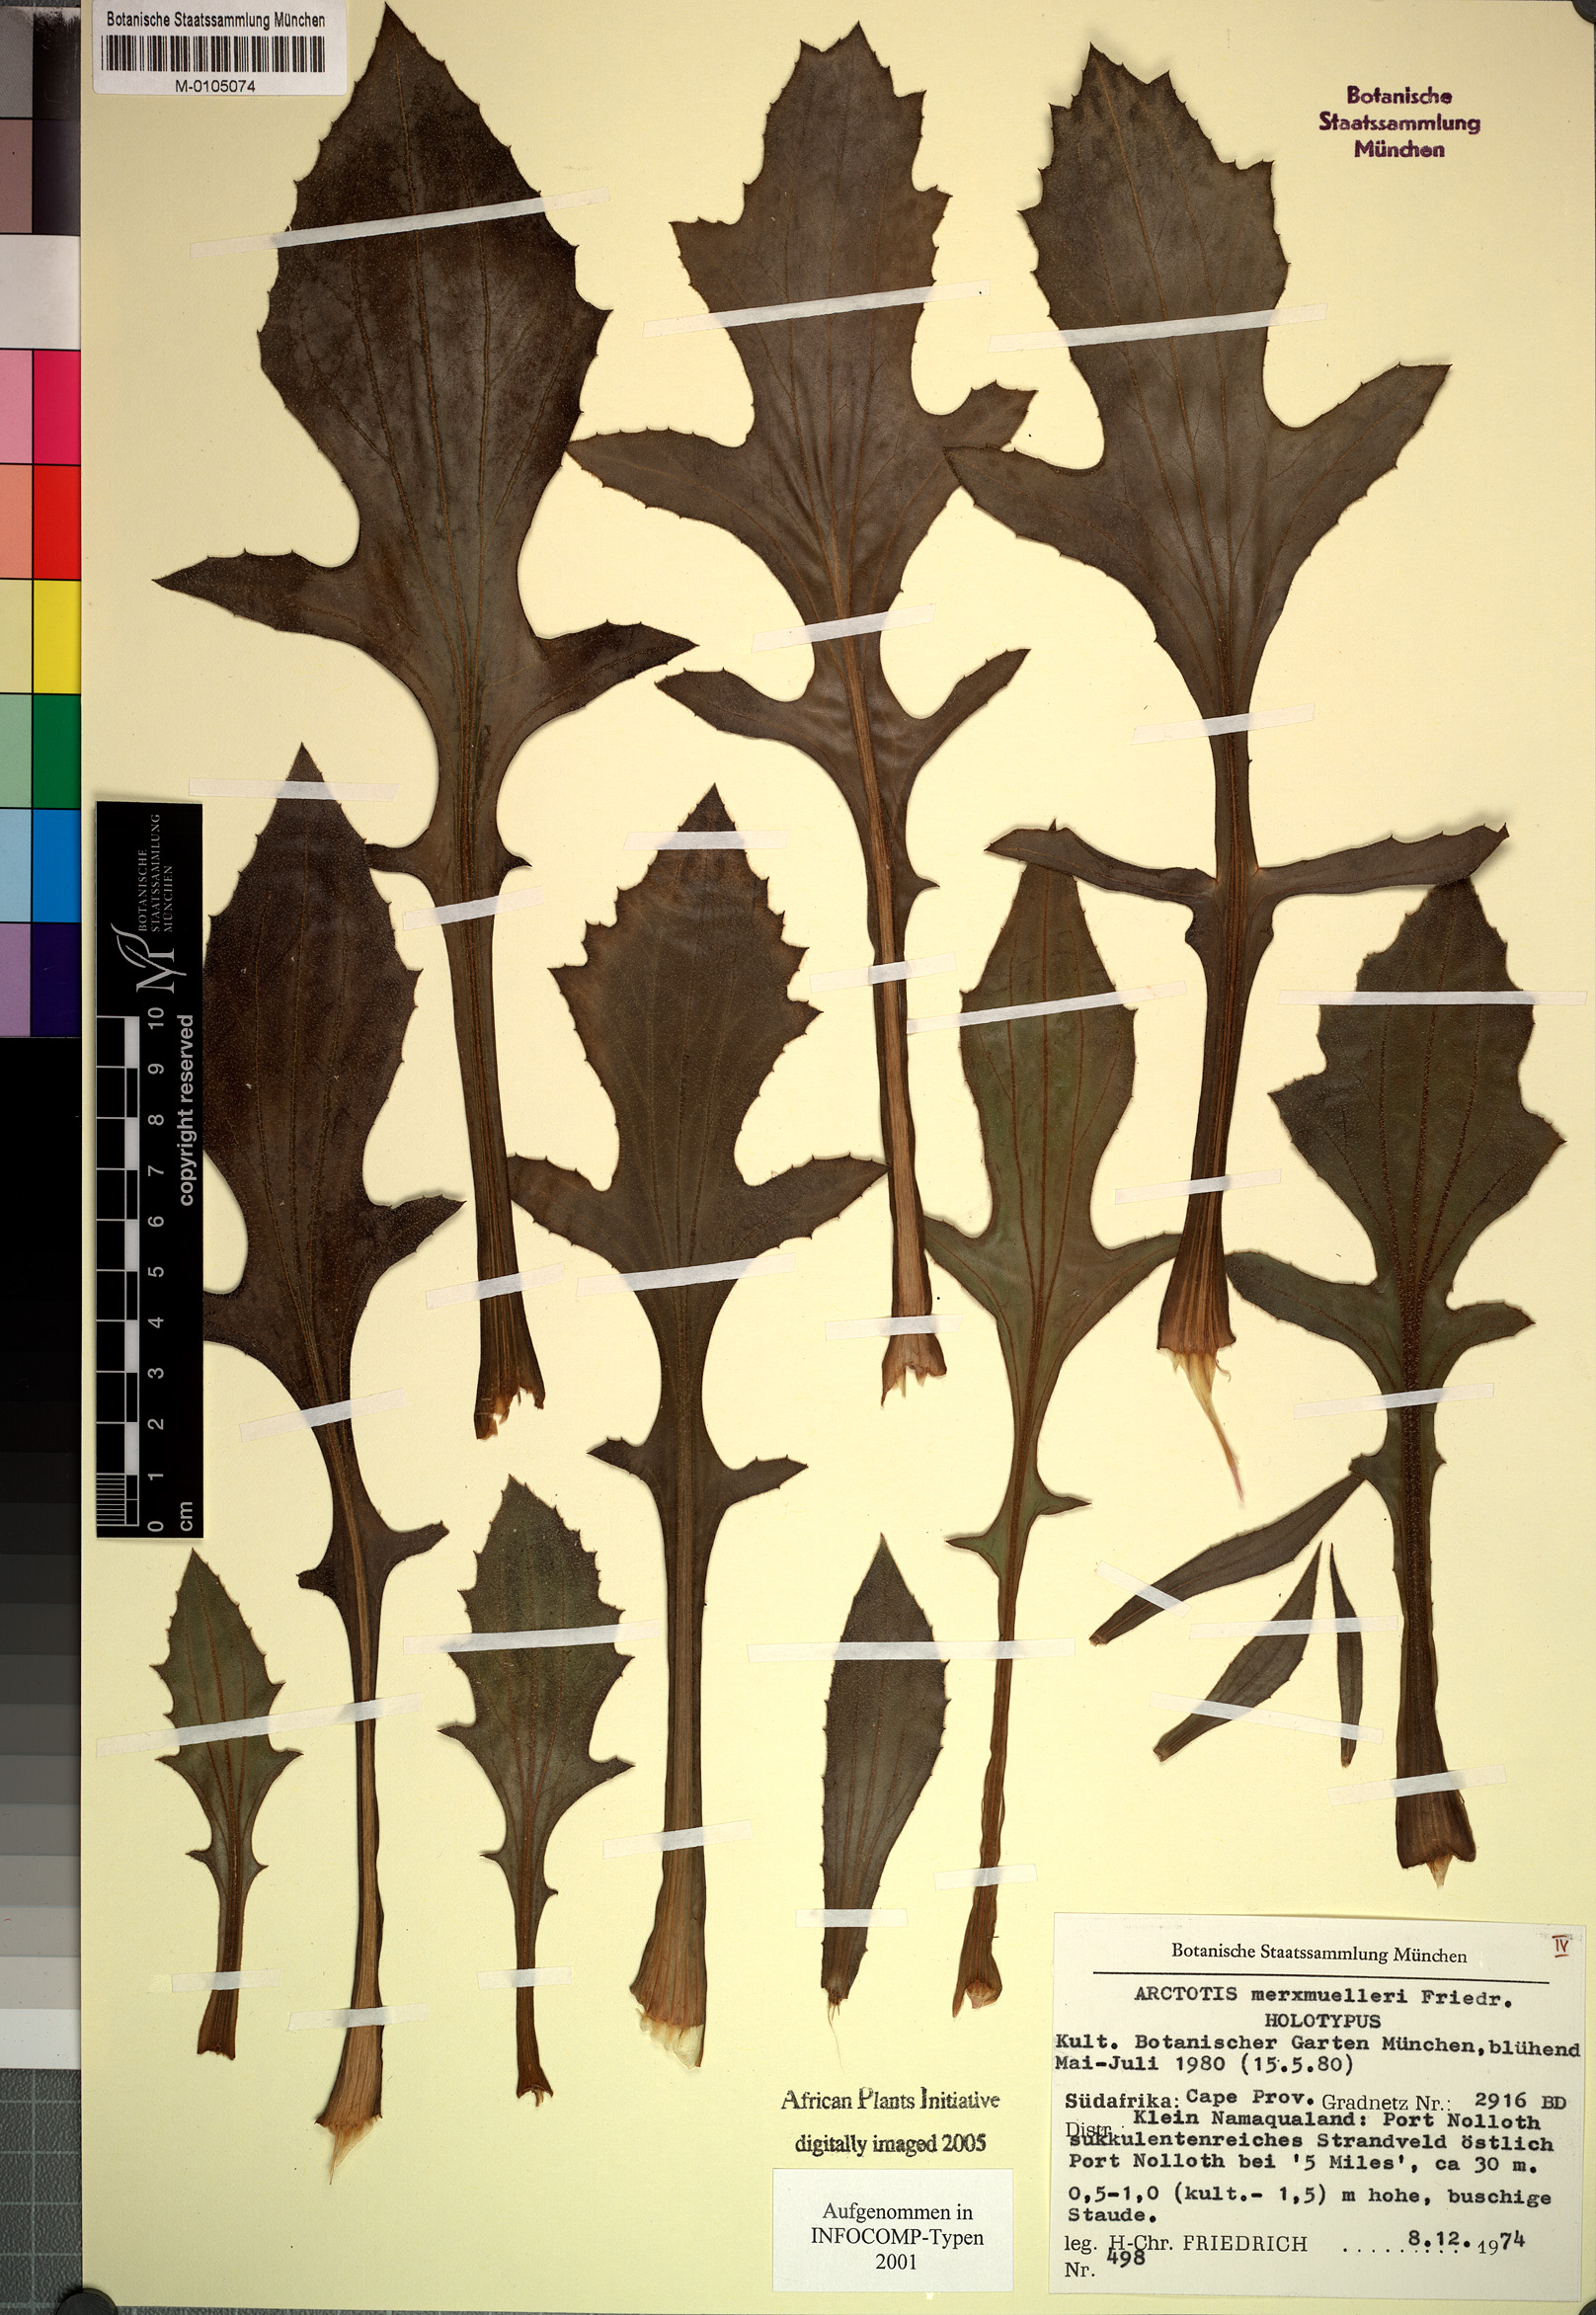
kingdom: Plantae
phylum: Tracheophyta
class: Magnoliopsida
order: Asterales
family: Asteraceae
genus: Arctotis
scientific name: Arctotis decurrens
